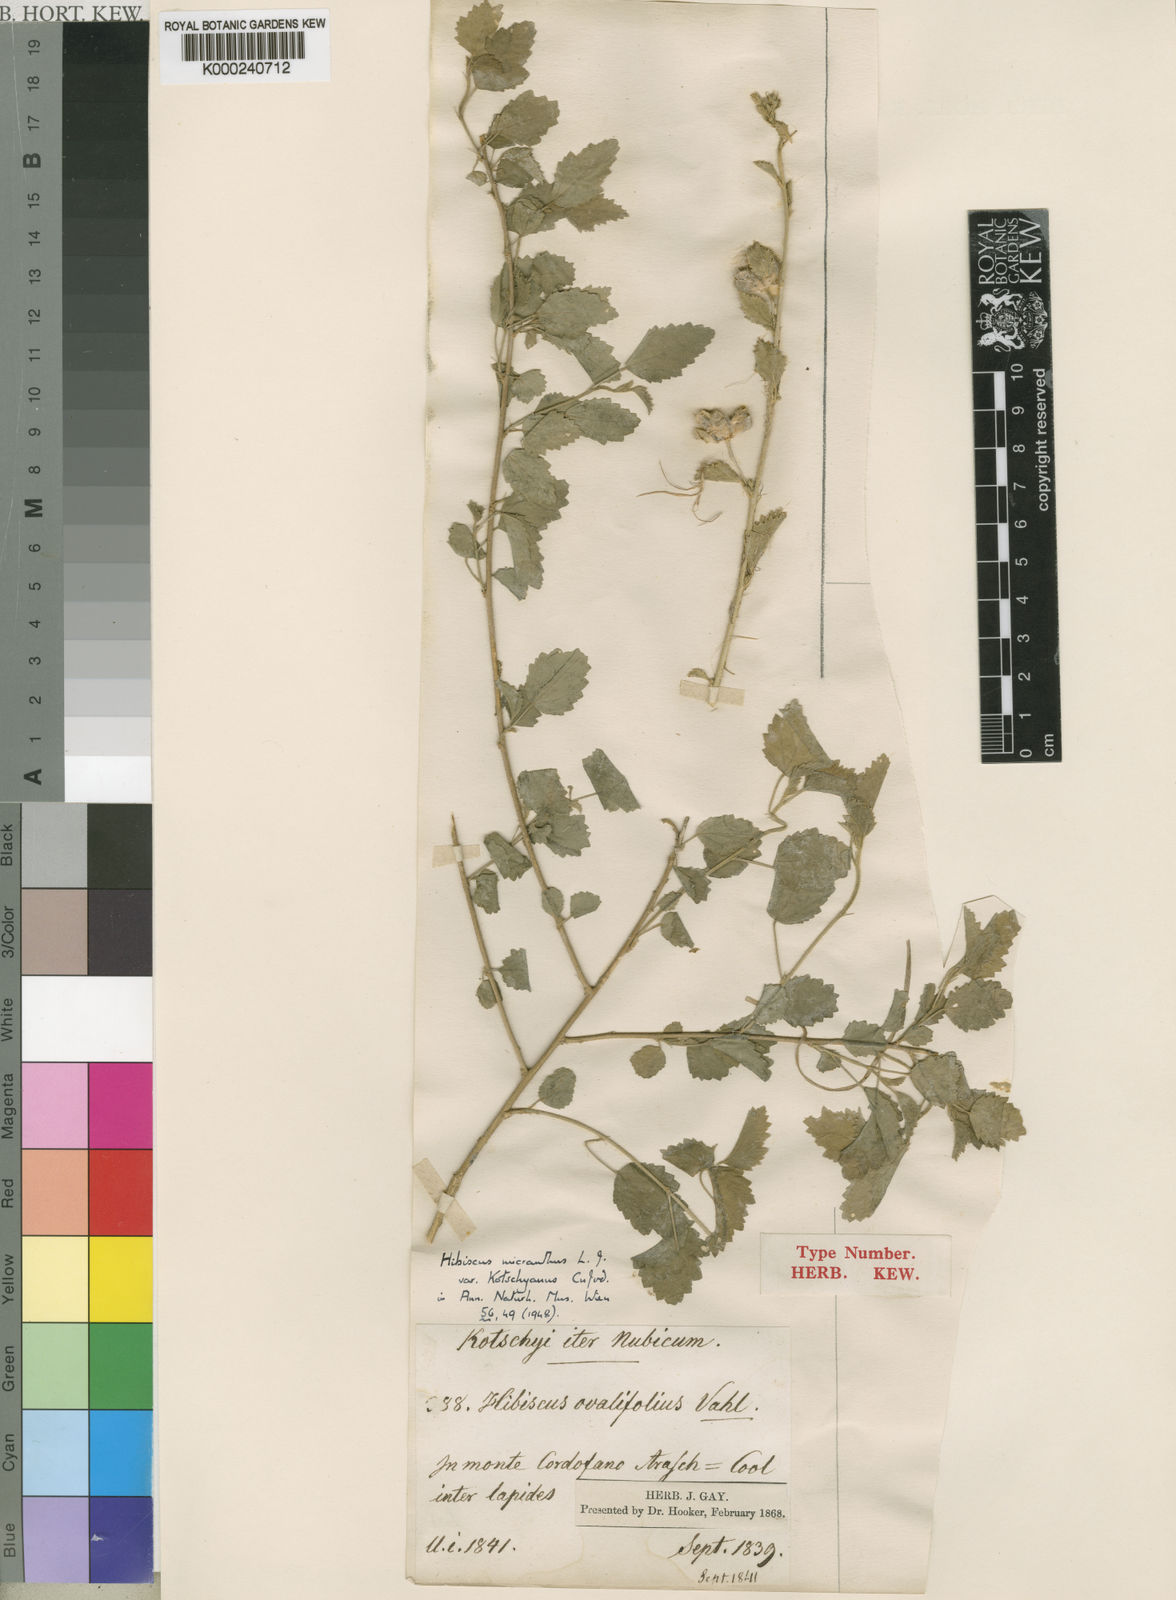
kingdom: Plantae
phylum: Tracheophyta
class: Magnoliopsida
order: Malvales
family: Malvaceae
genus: Hibiscus
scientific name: Hibiscus micranthus
